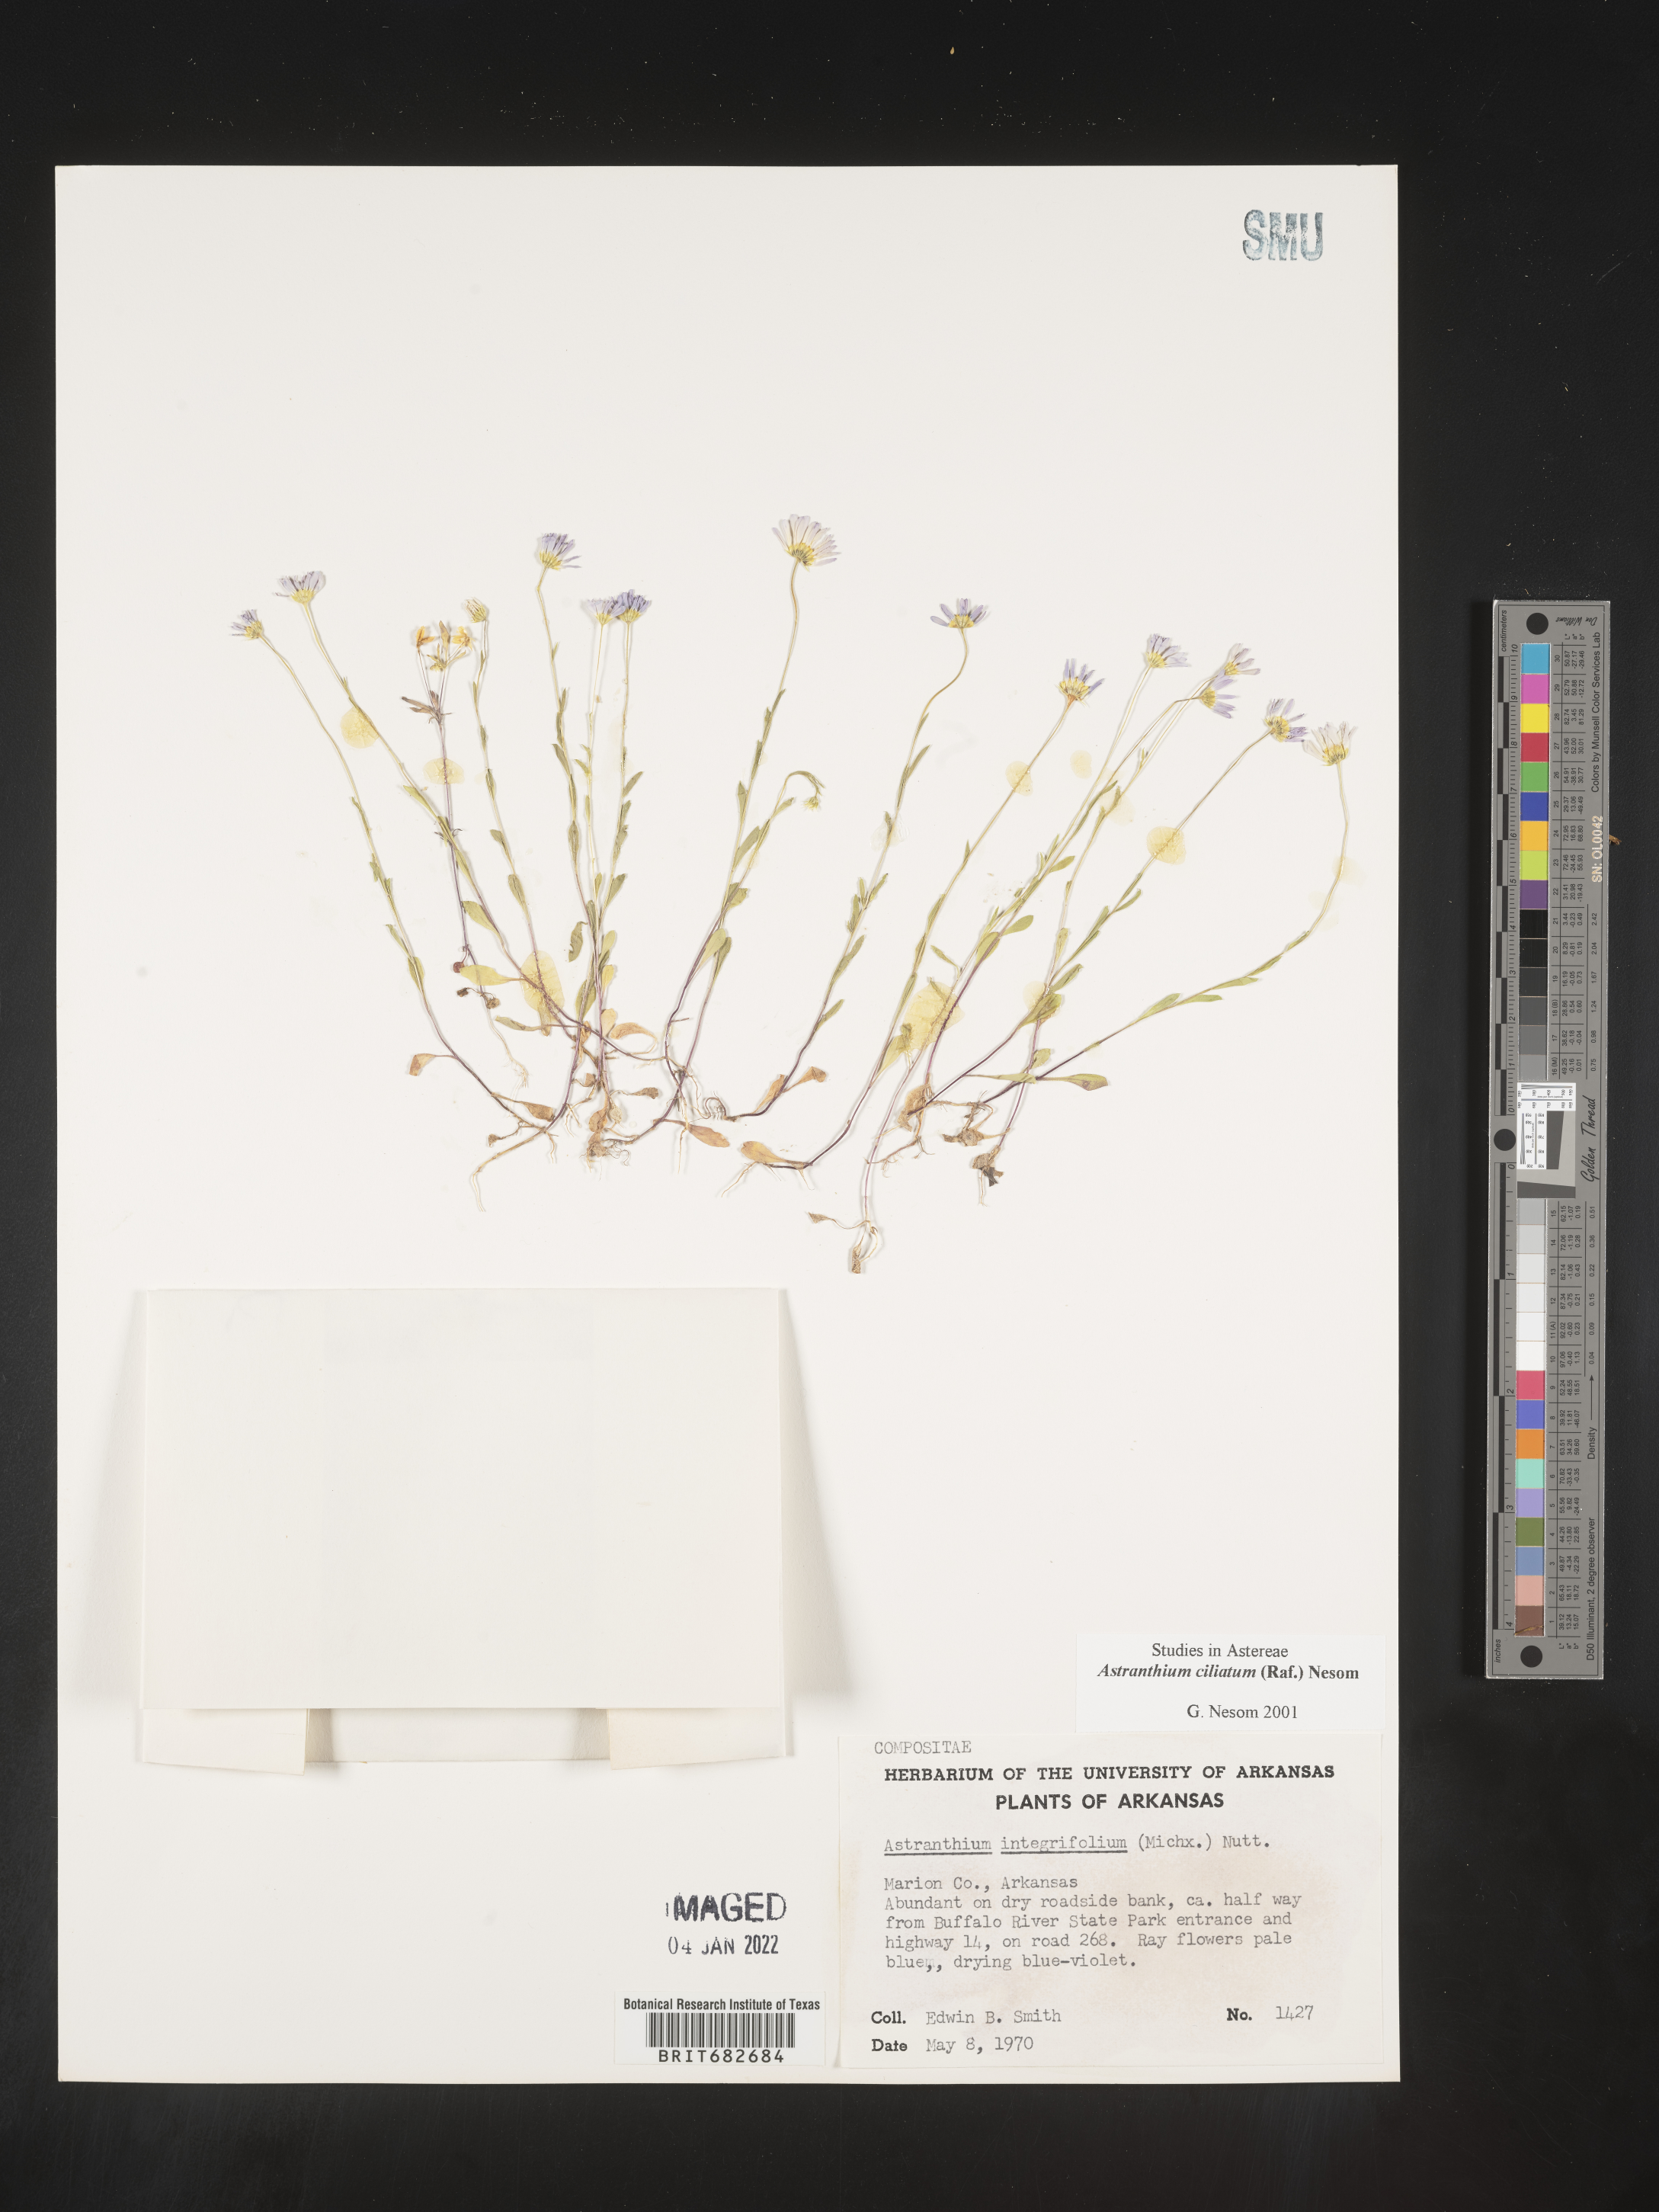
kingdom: Plantae
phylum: Tracheophyta
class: Magnoliopsida
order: Asterales
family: Asteraceae
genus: Astranthium
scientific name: Astranthium ciliatum
